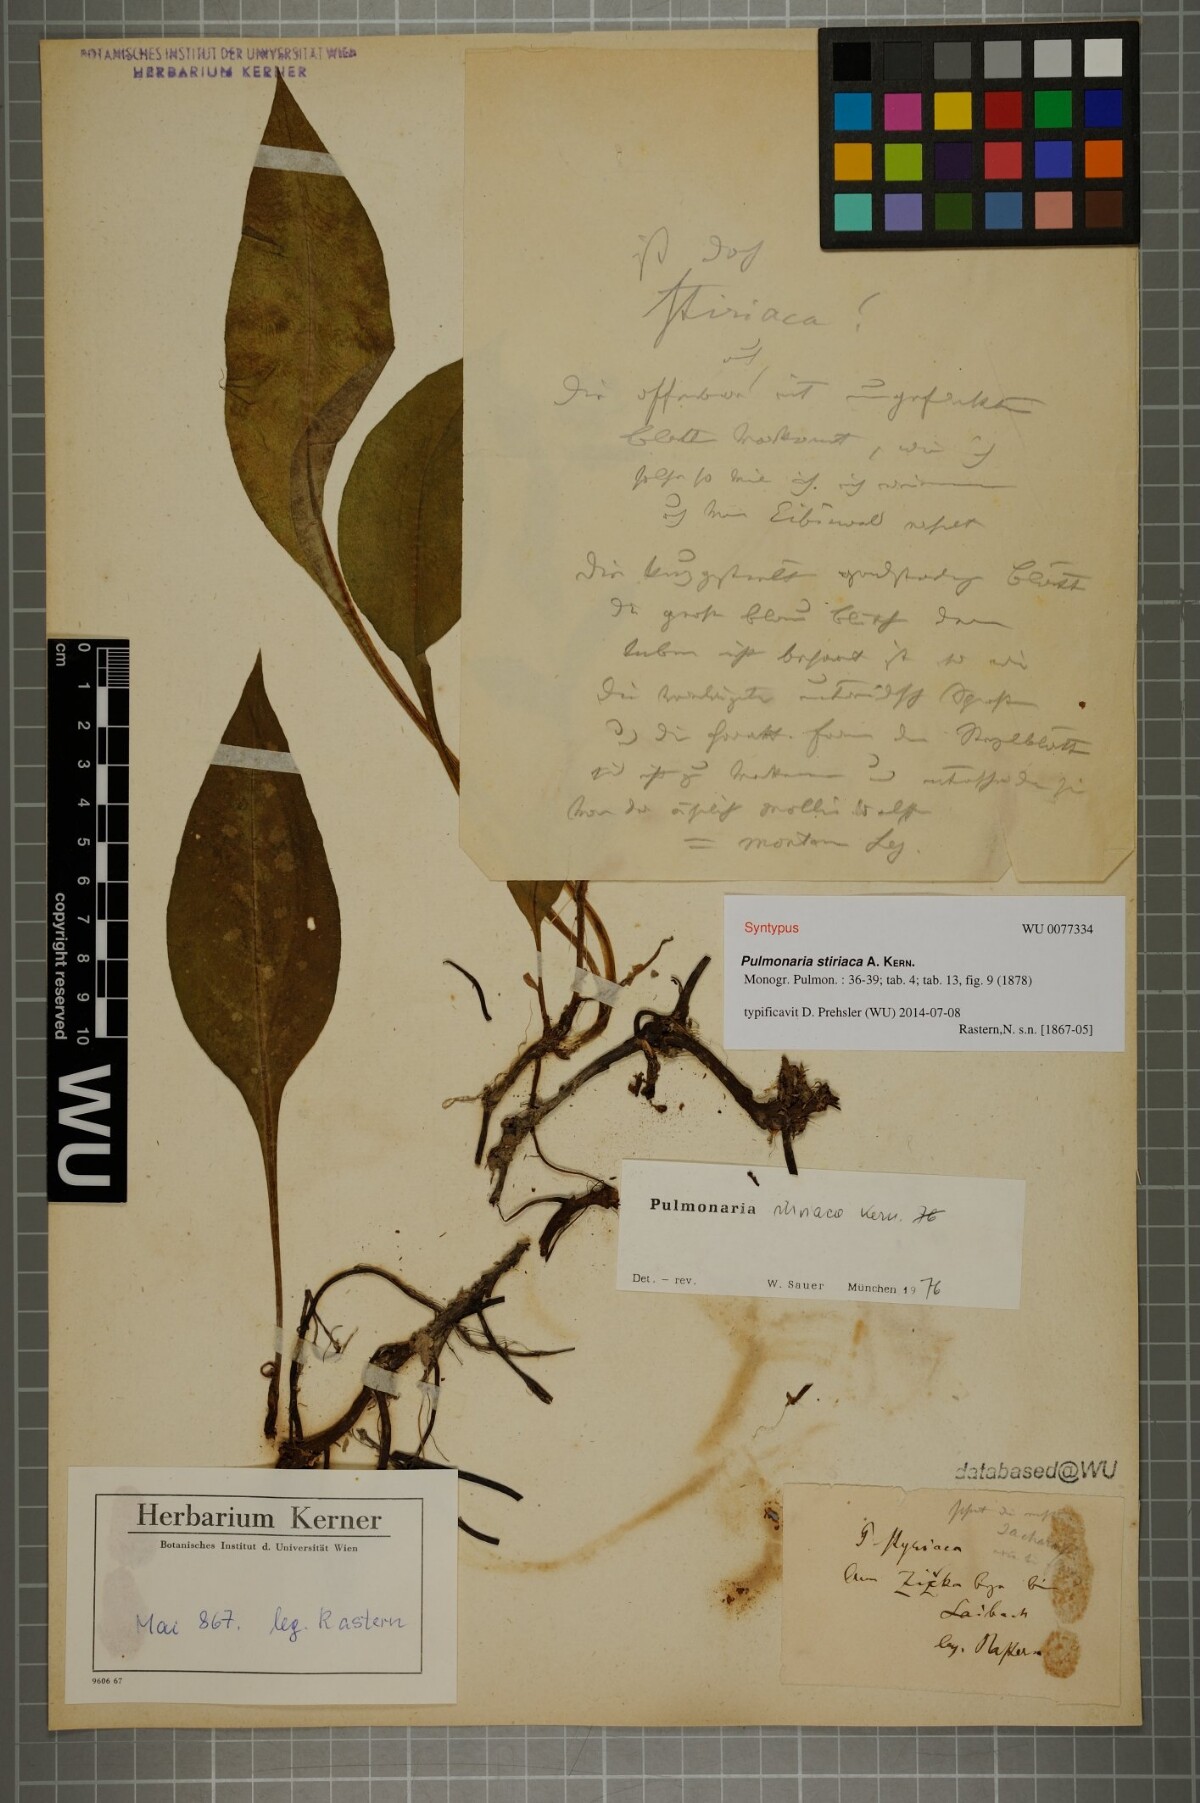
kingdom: Plantae
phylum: Tracheophyta
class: Magnoliopsida
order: Boraginales
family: Boraginaceae
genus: Pulmonaria
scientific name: Pulmonaria stiriaca
